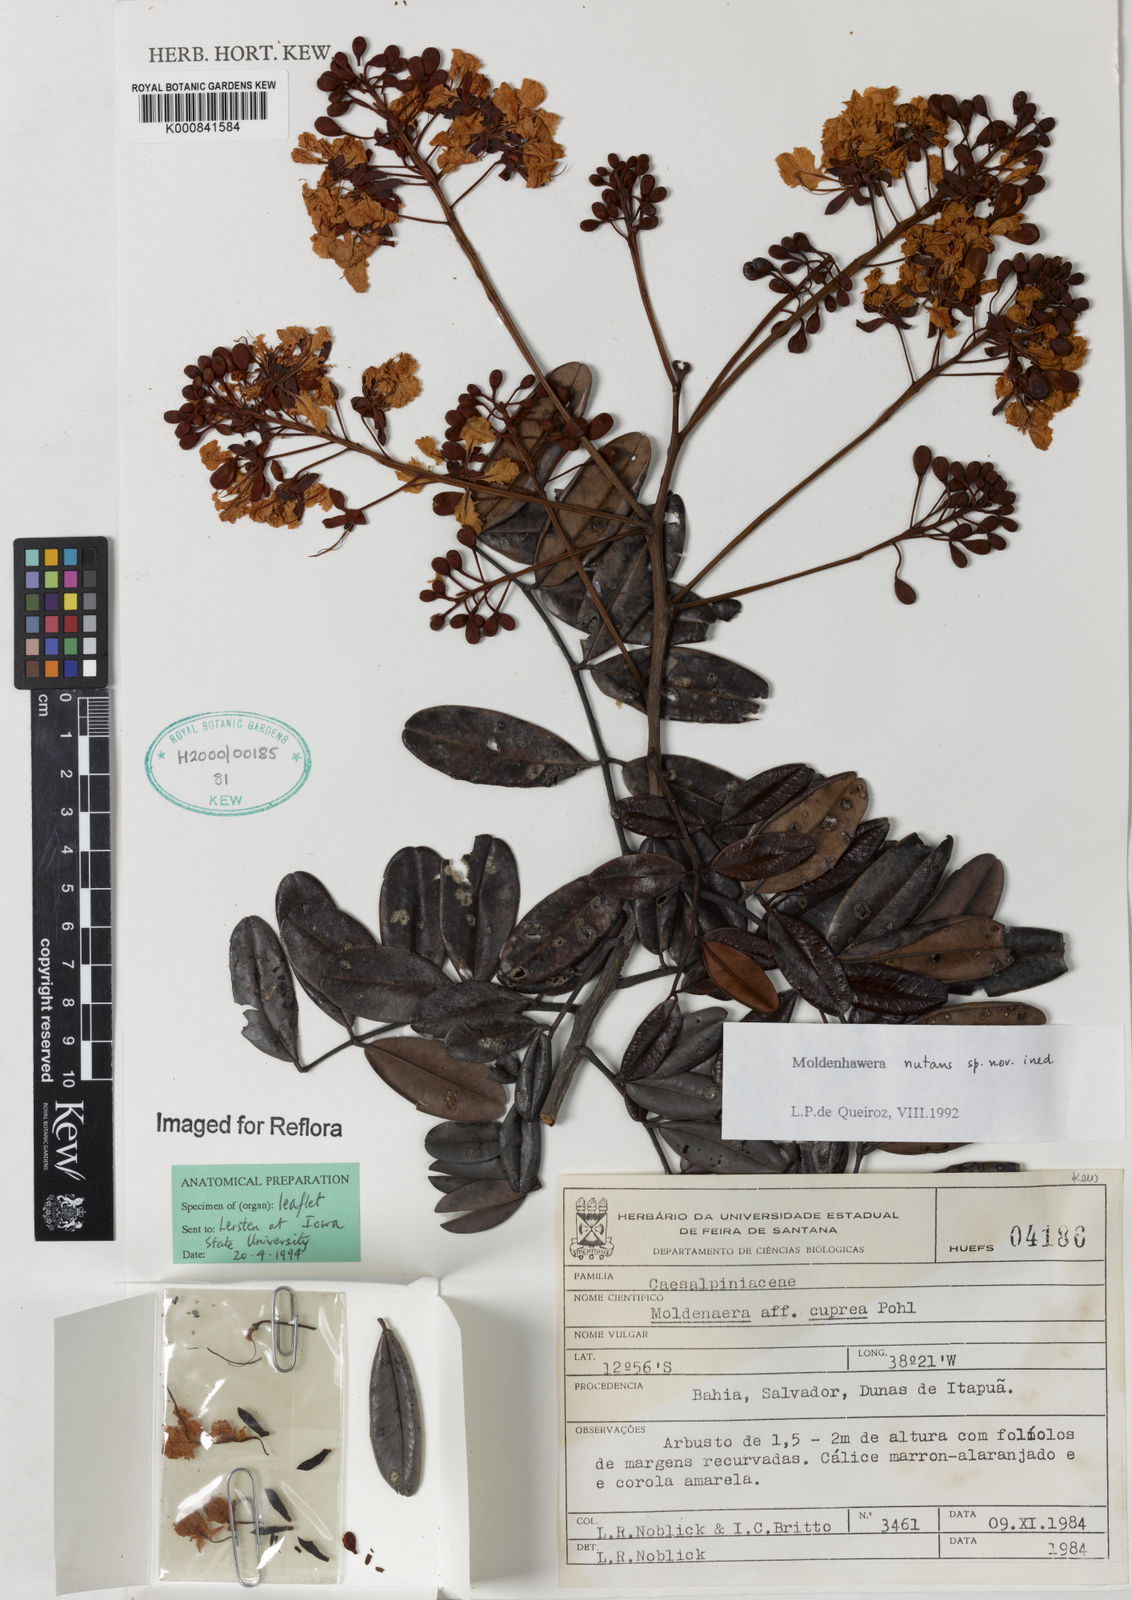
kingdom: Plantae
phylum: Tracheophyta
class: Magnoliopsida
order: Fabales
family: Fabaceae
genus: Moldenhawera
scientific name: Moldenhawera
